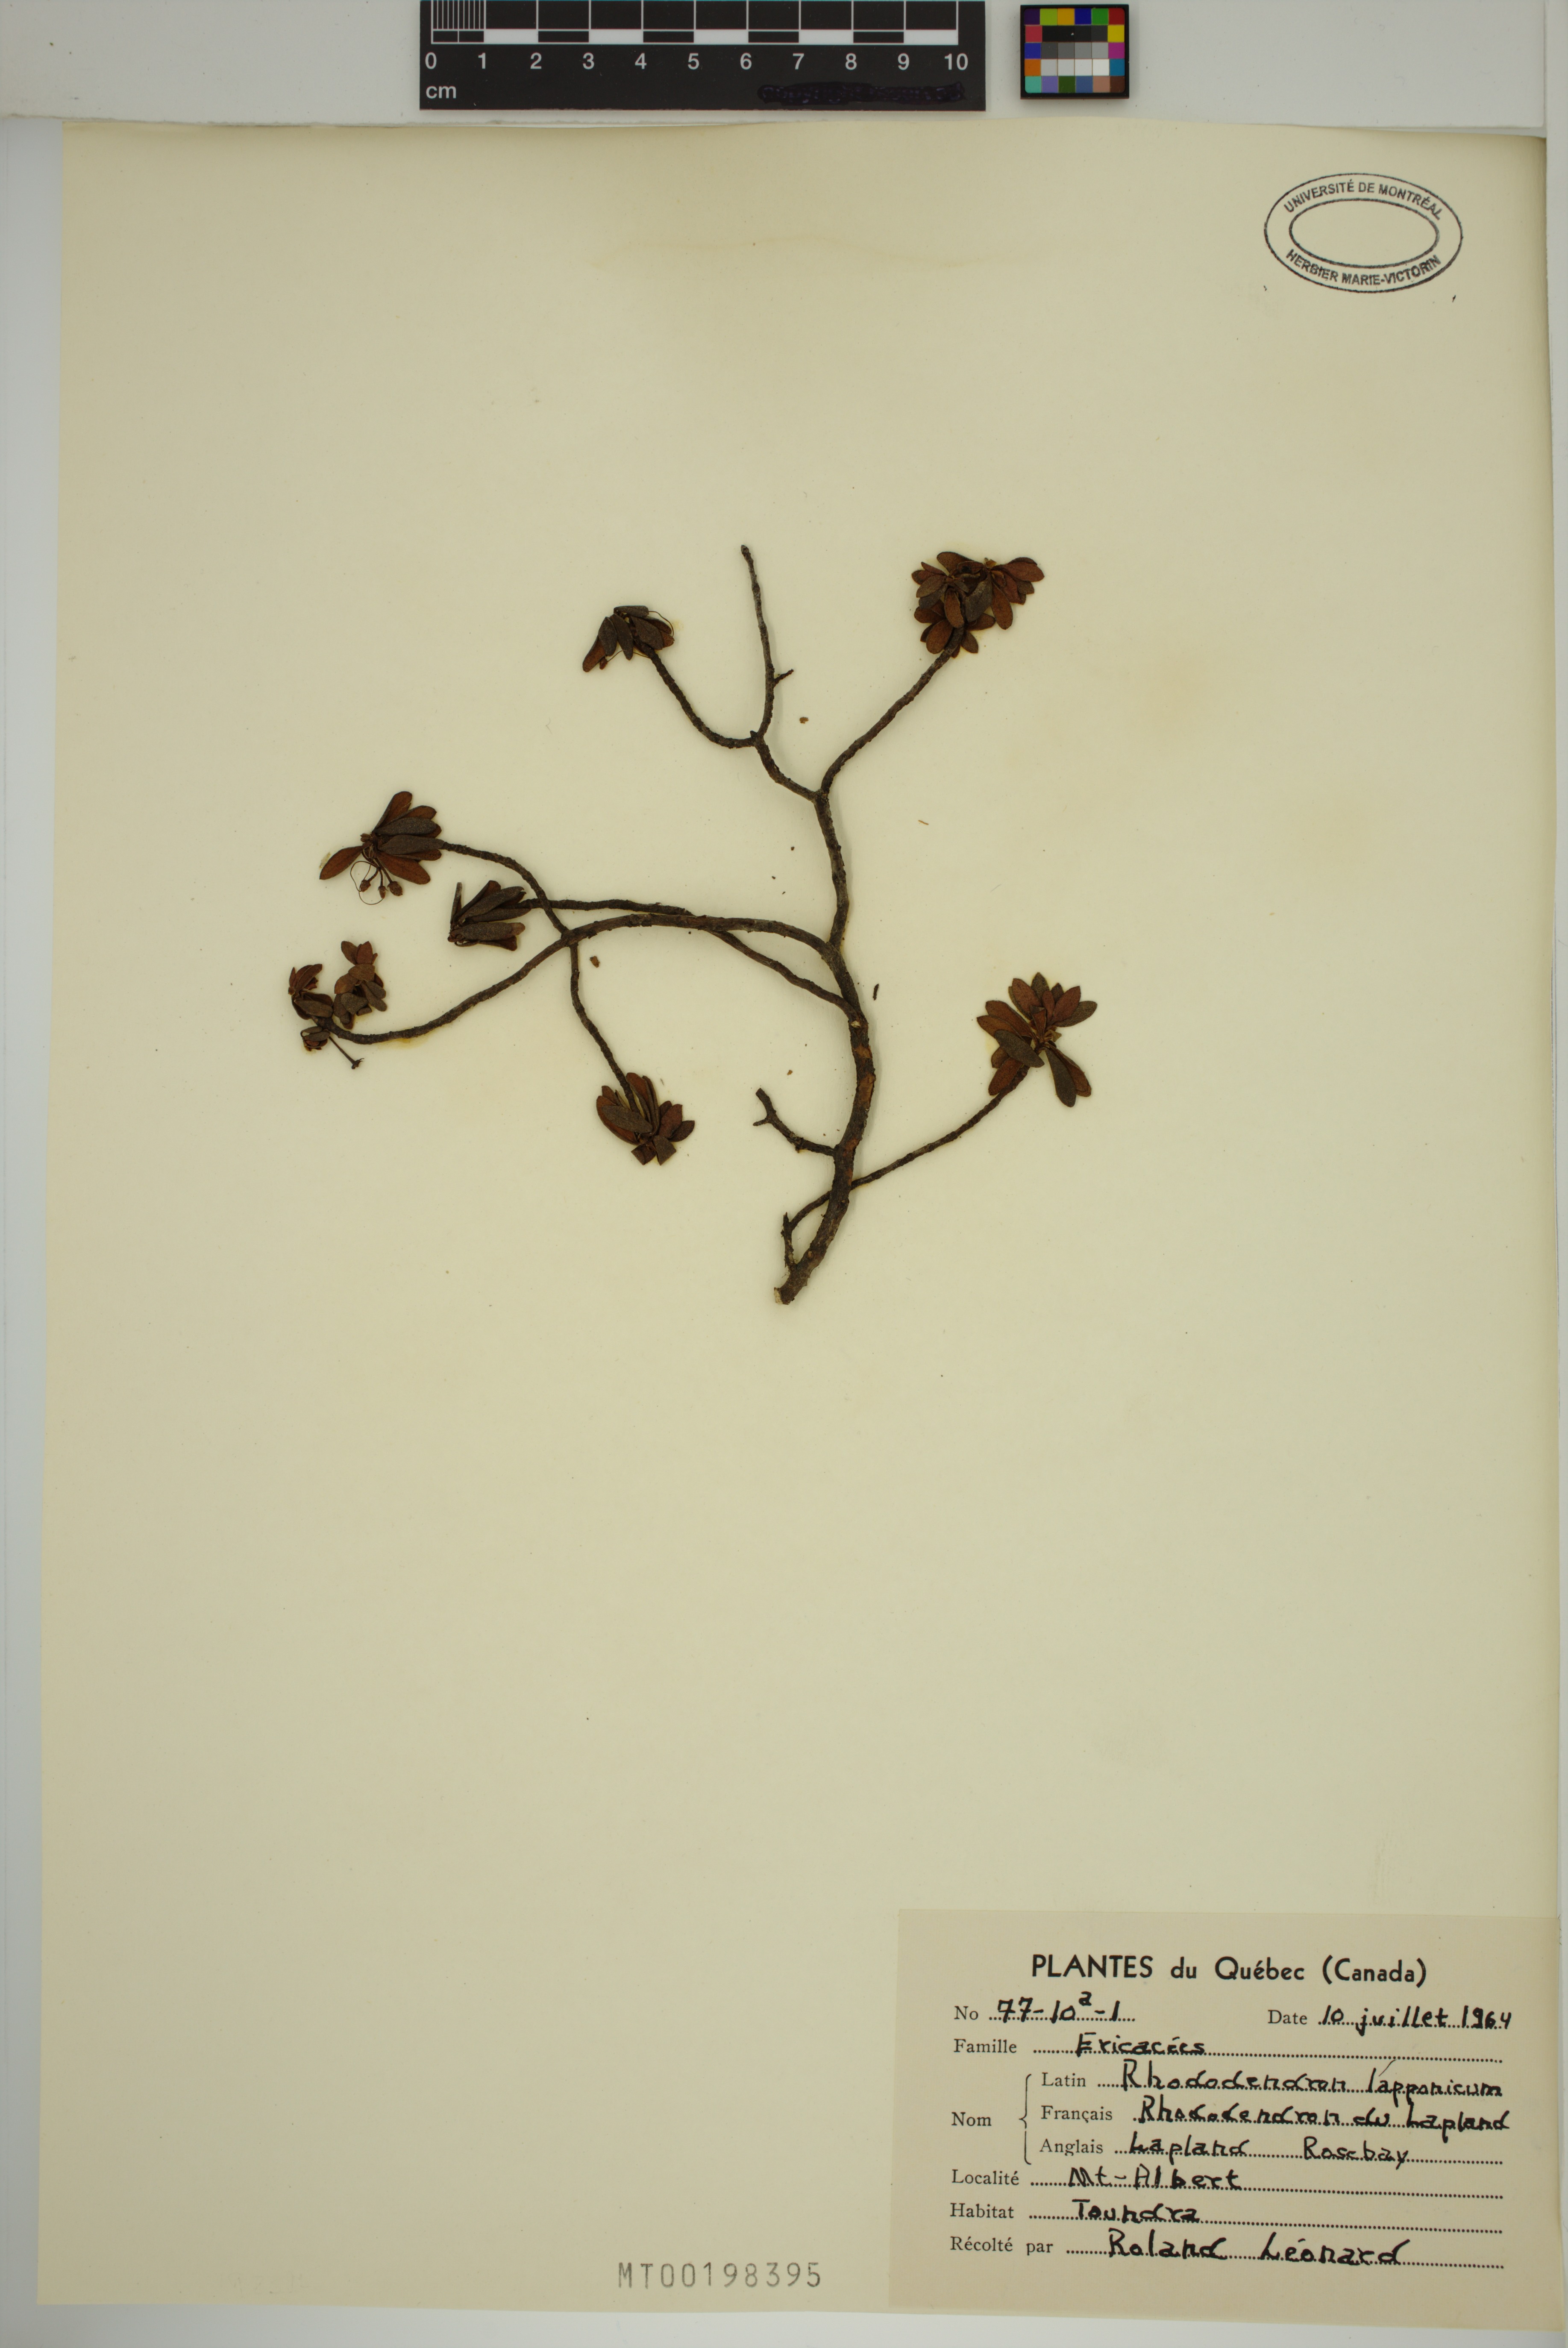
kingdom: Plantae
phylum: Tracheophyta
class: Magnoliopsida
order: Ericales
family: Ericaceae
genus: Rhododendron
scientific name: Rhododendron lapponicum
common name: Lapland rhododendron
